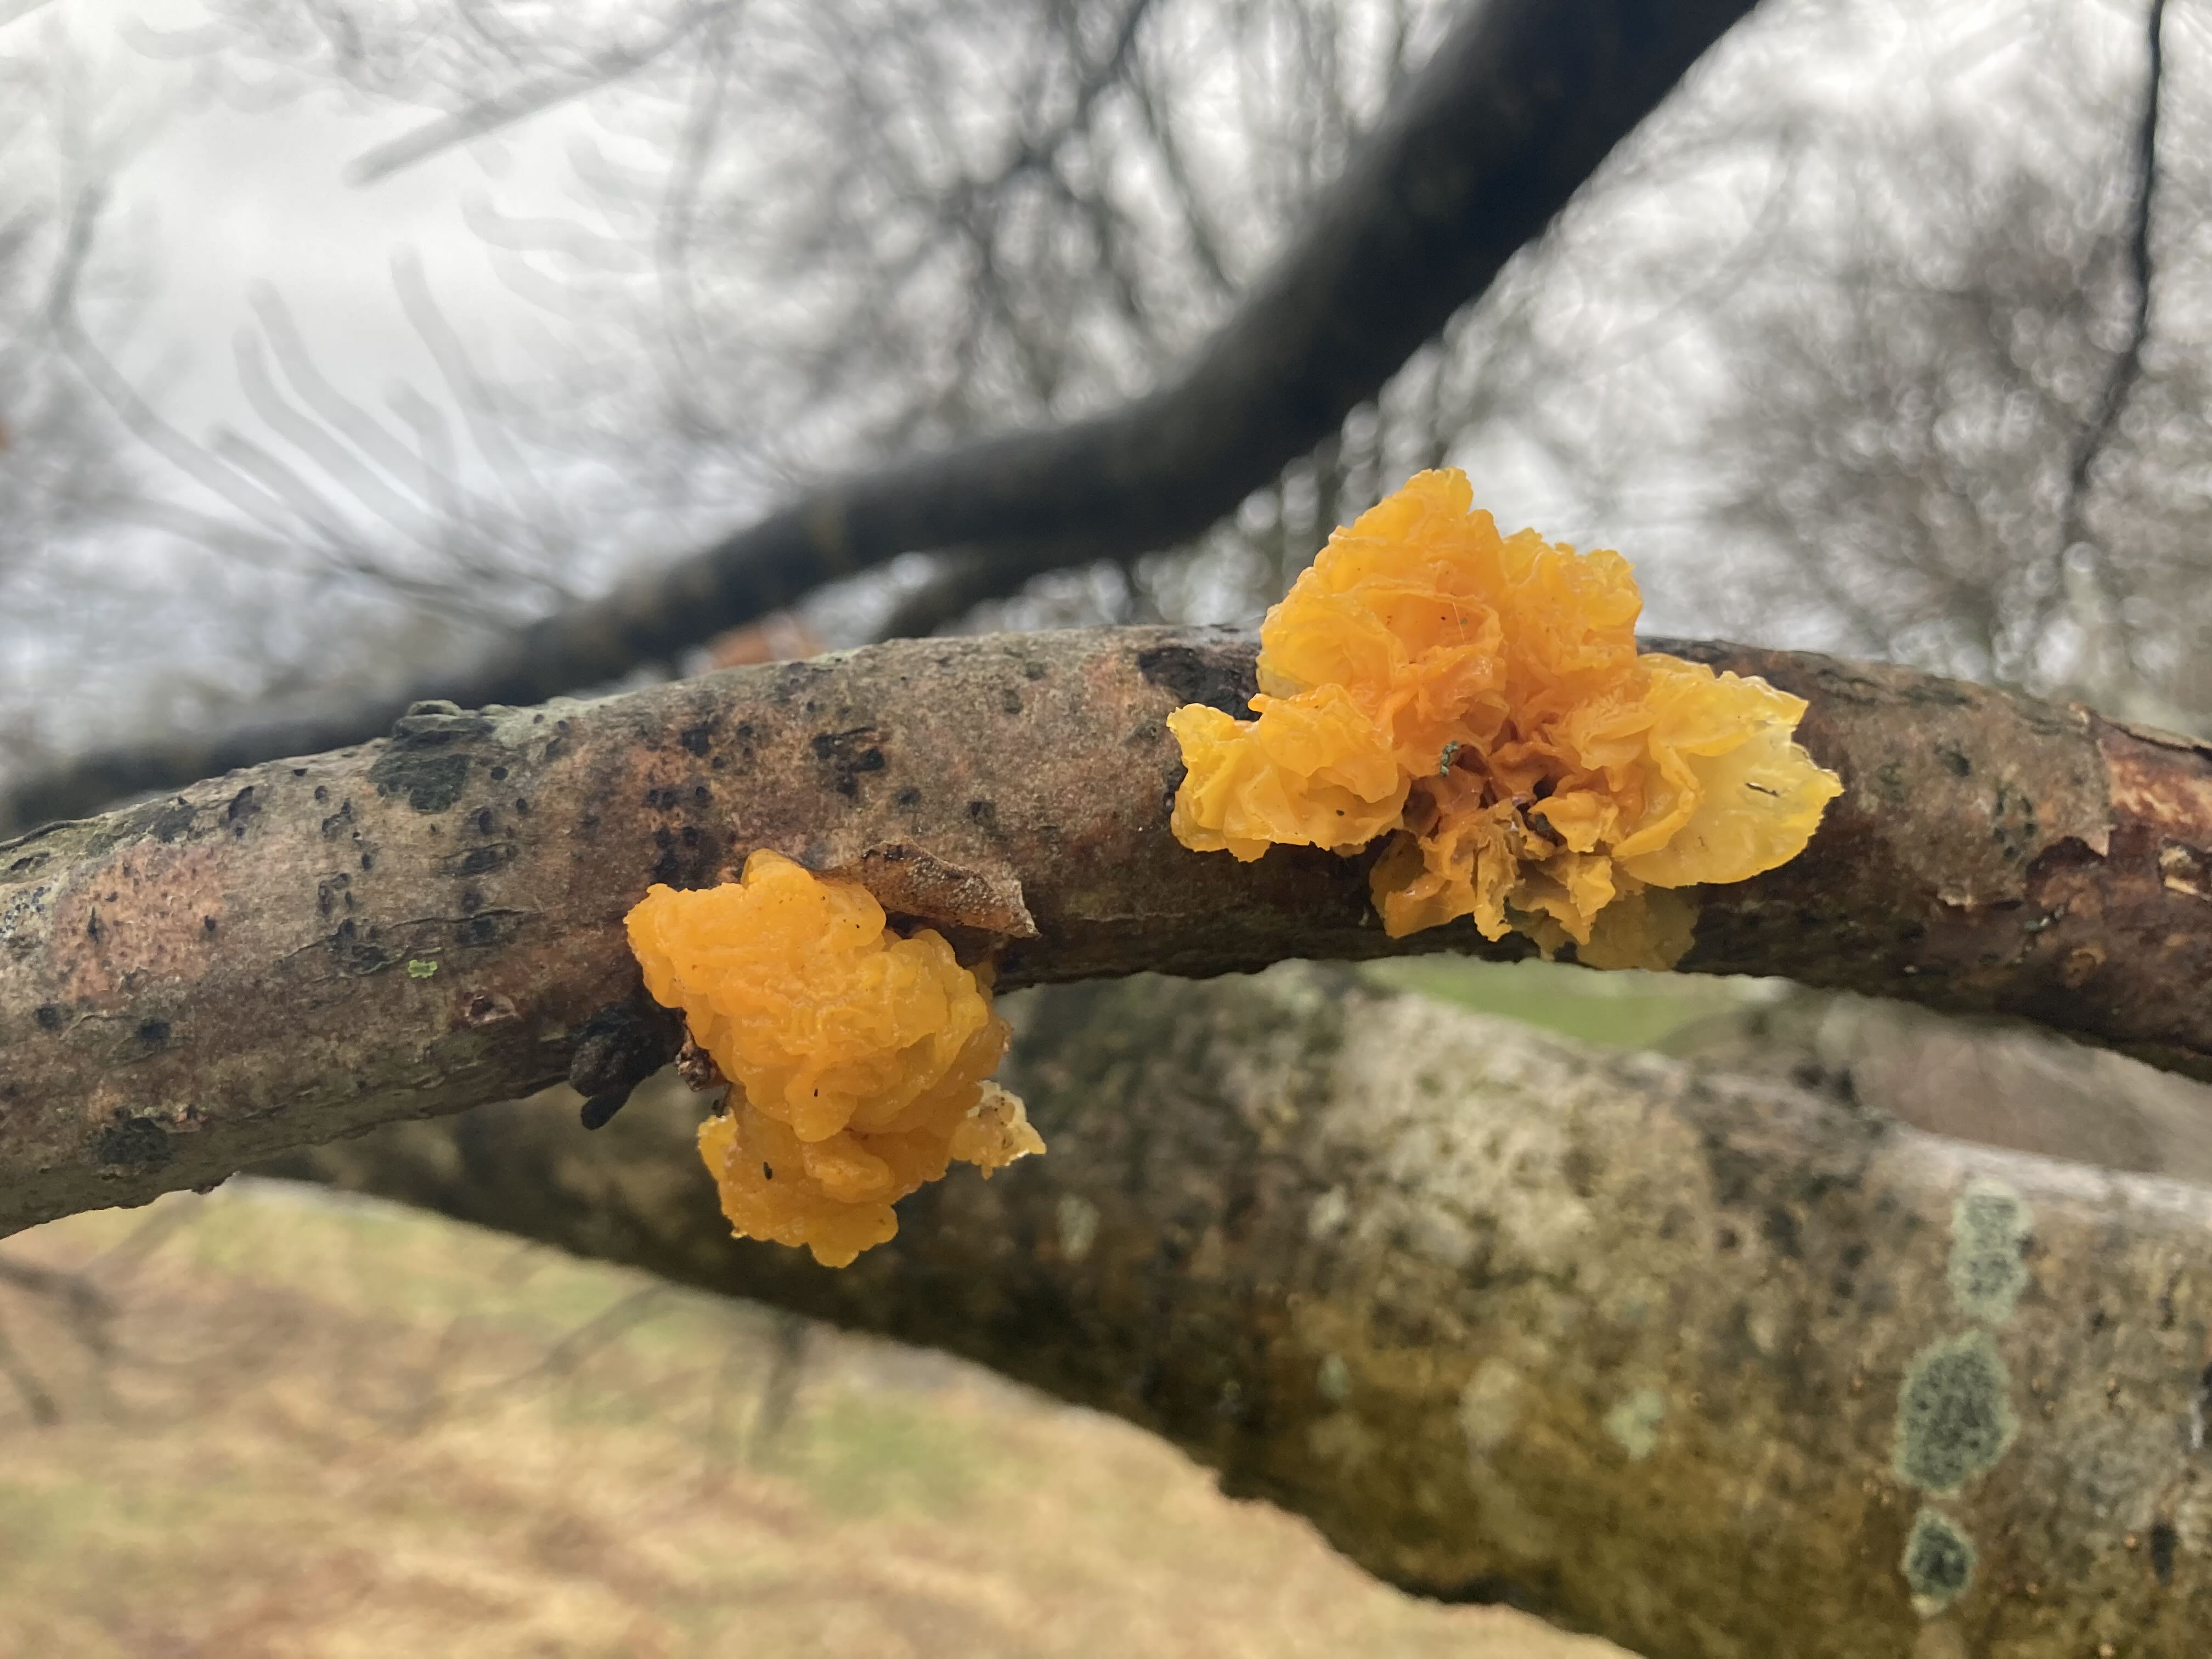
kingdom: Fungi
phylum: Basidiomycota
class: Tremellomycetes
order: Tremellales
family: Tremellaceae
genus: Tremella
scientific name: Tremella mesenterica
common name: gul bævresvamp
